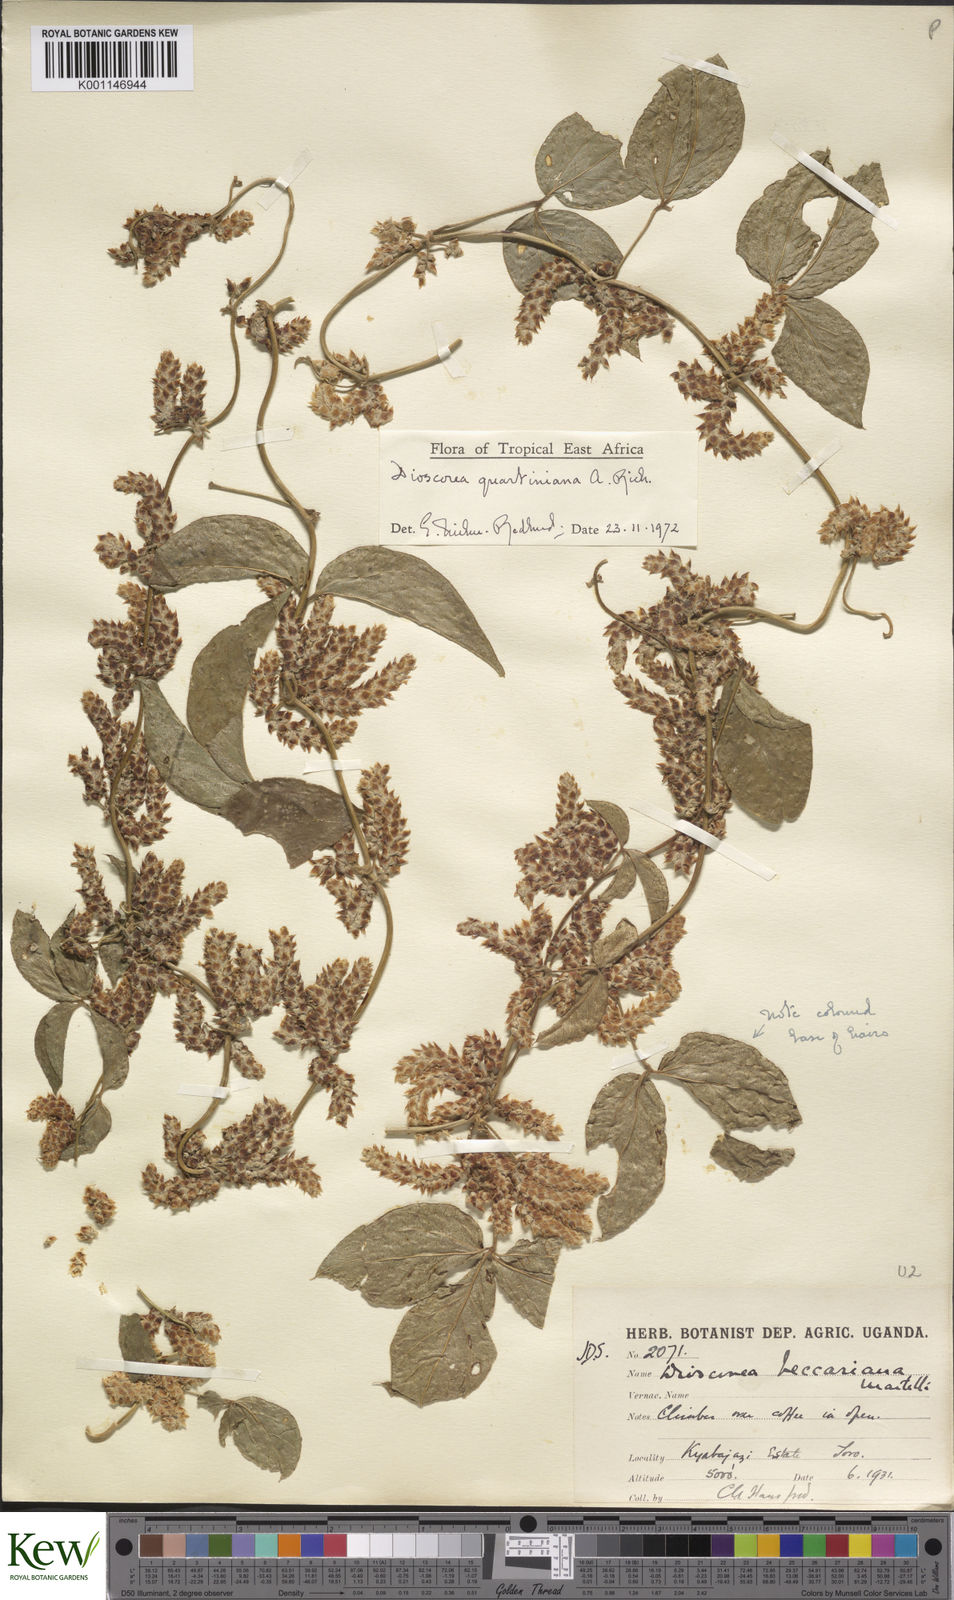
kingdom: Plantae
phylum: Tracheophyta
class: Liliopsida
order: Dioscoreales
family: Dioscoreaceae
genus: Dioscorea
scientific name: Dioscorea quartiniana
